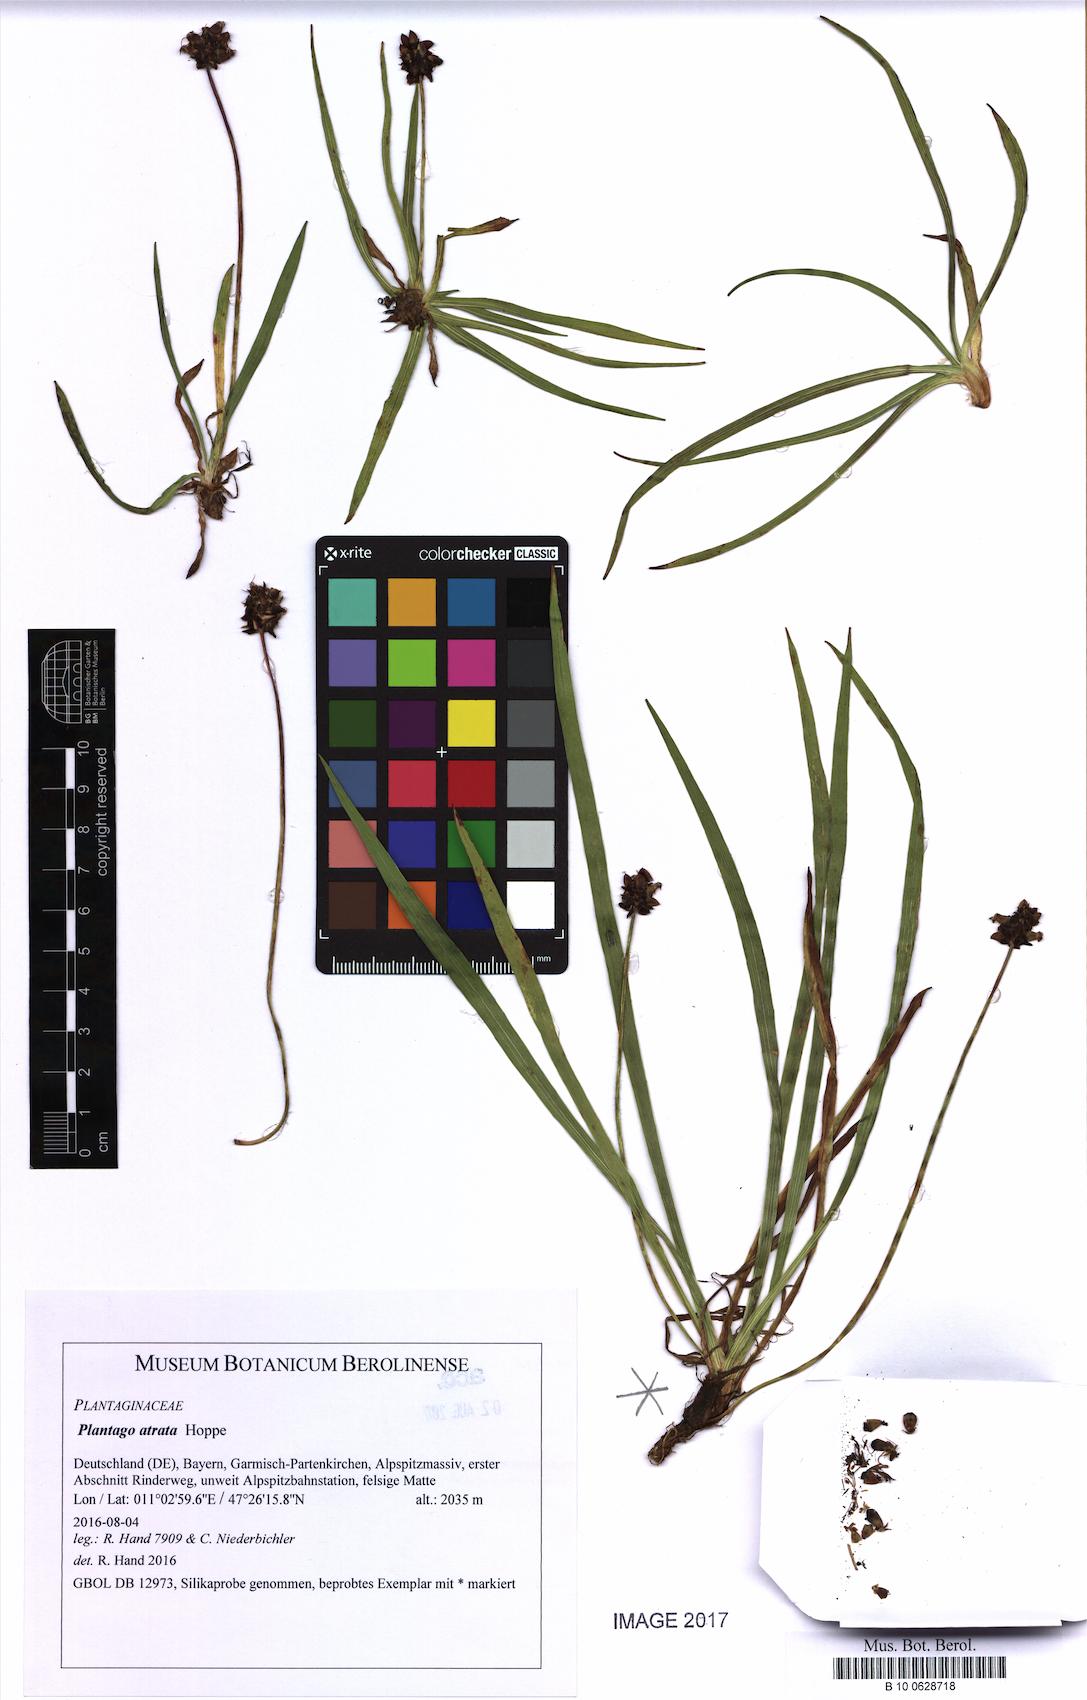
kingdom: Plantae
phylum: Tracheophyta
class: Magnoliopsida
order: Lamiales
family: Plantaginaceae
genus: Plantago
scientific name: Plantago atrata
